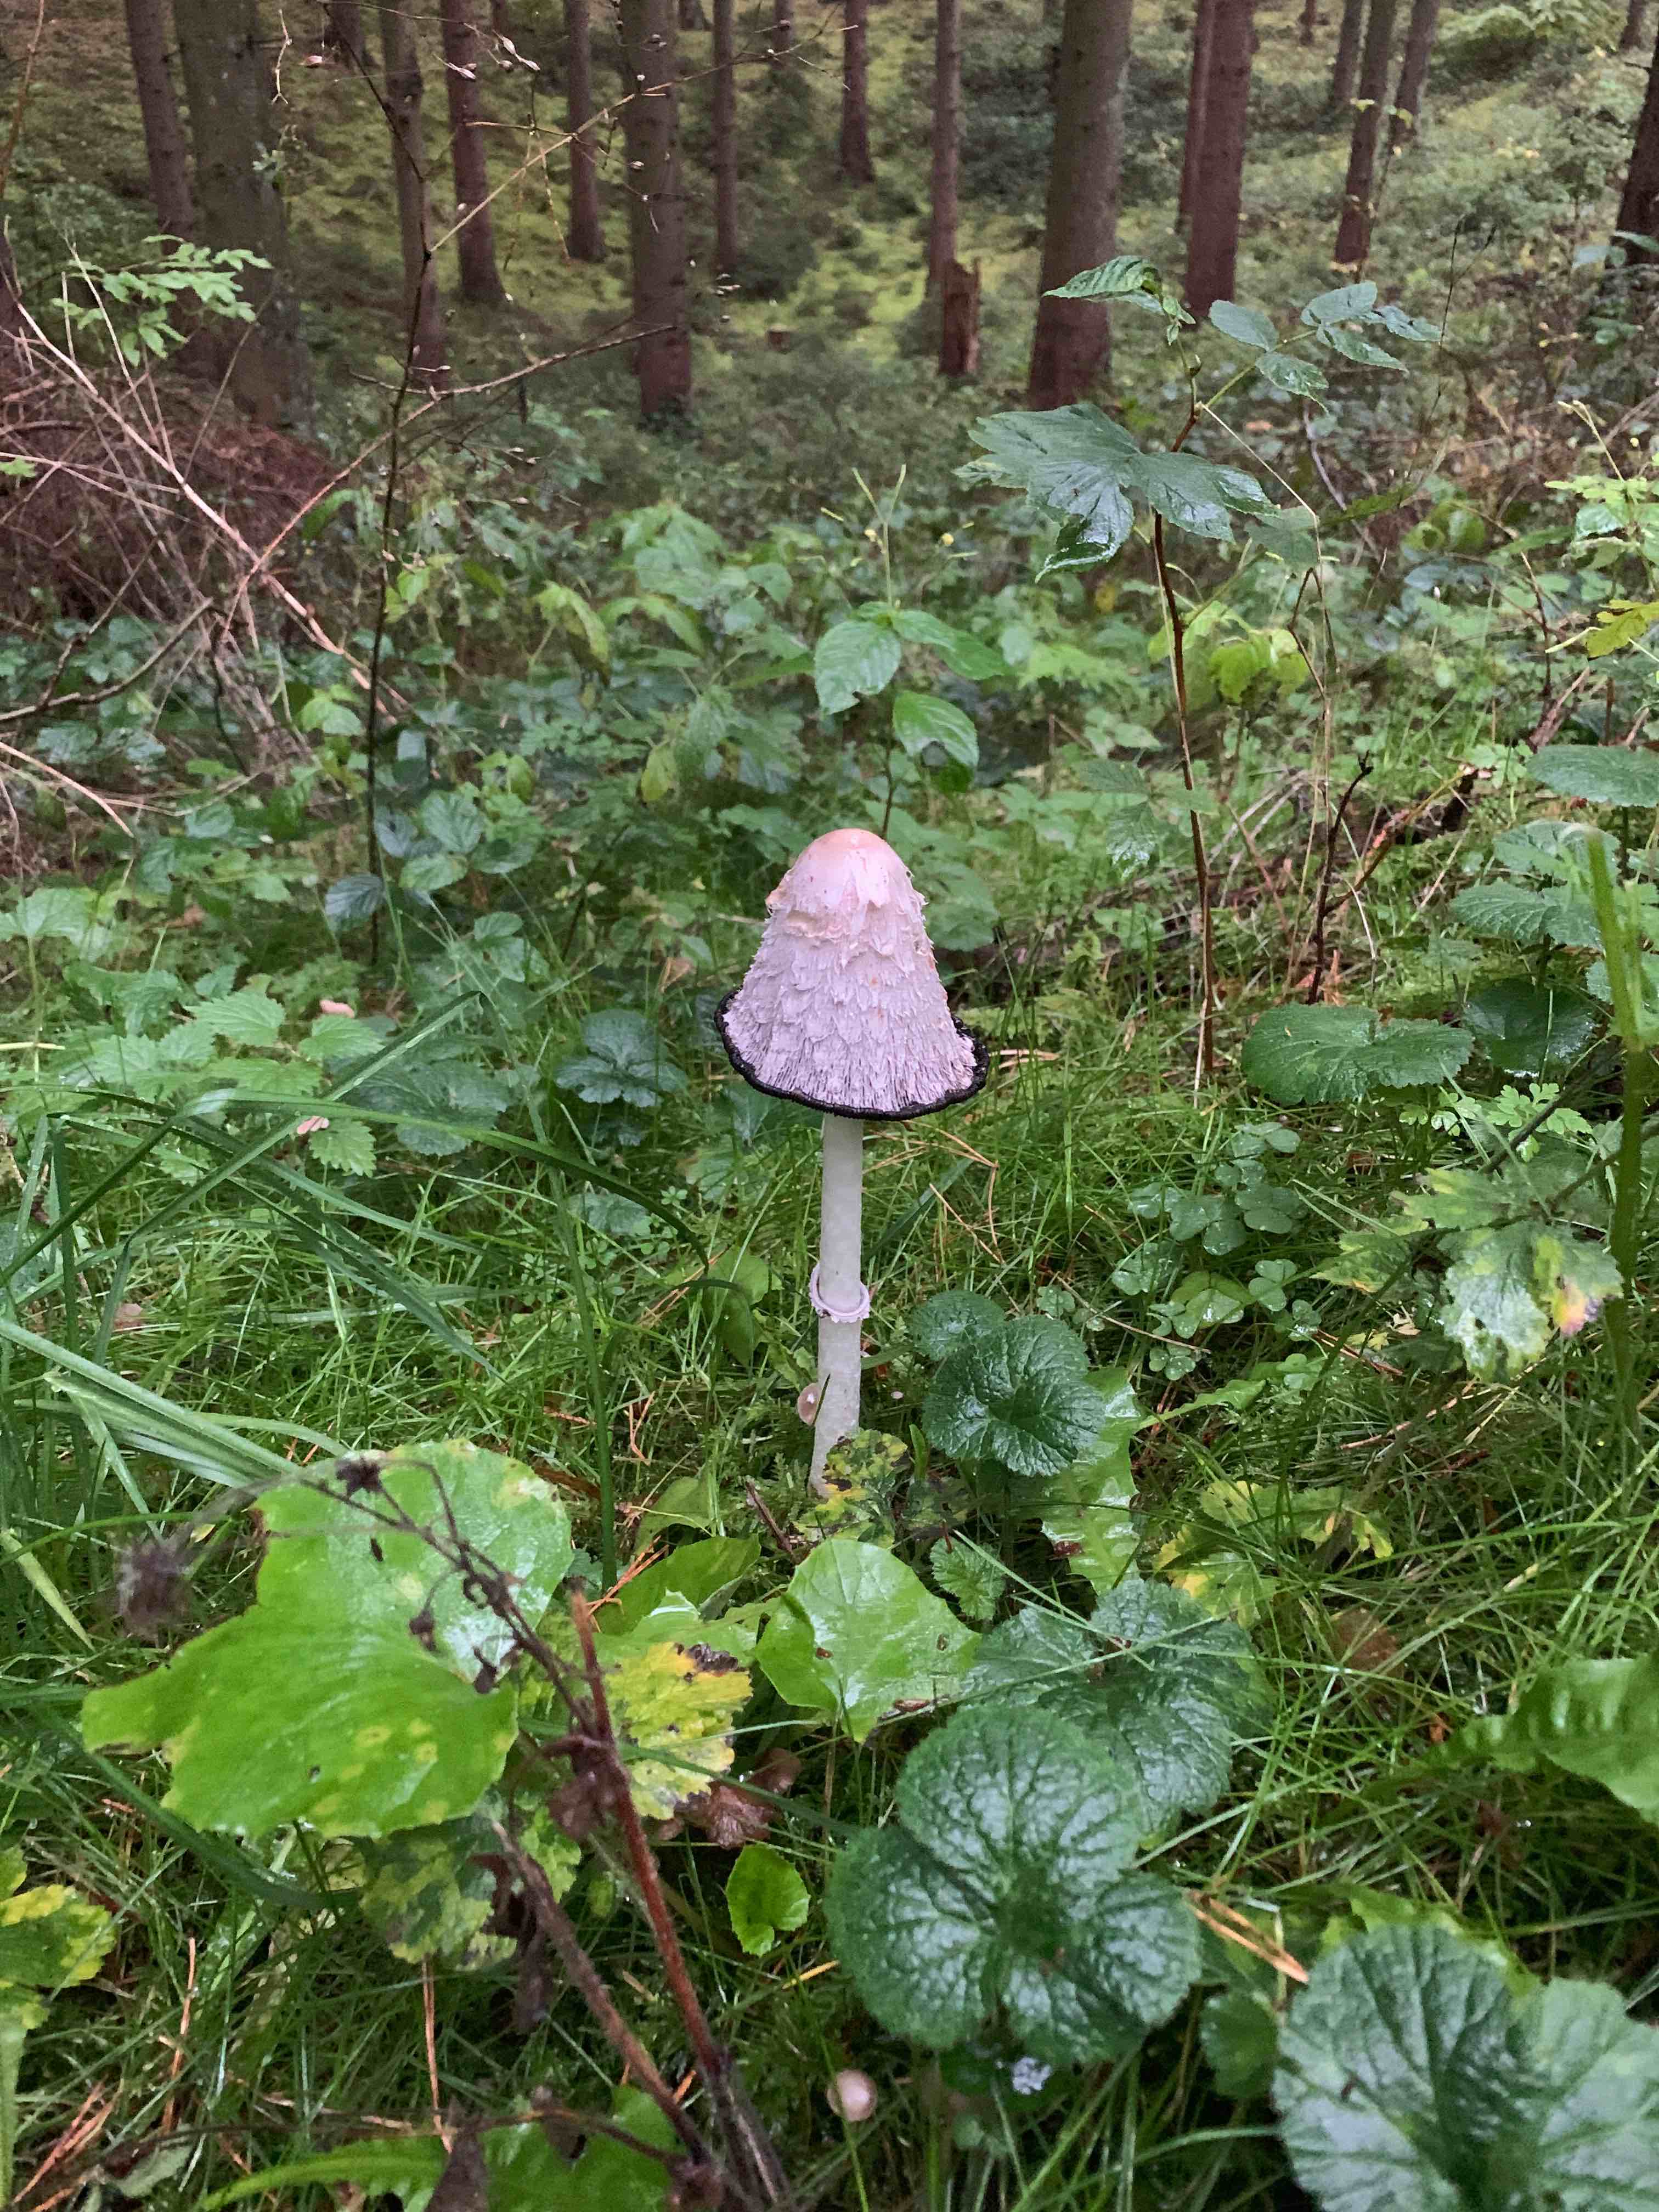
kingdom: Fungi
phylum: Basidiomycota
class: Agaricomycetes
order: Agaricales
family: Agaricaceae
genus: Coprinus
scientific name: Coprinus comatus
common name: stor parykhat
